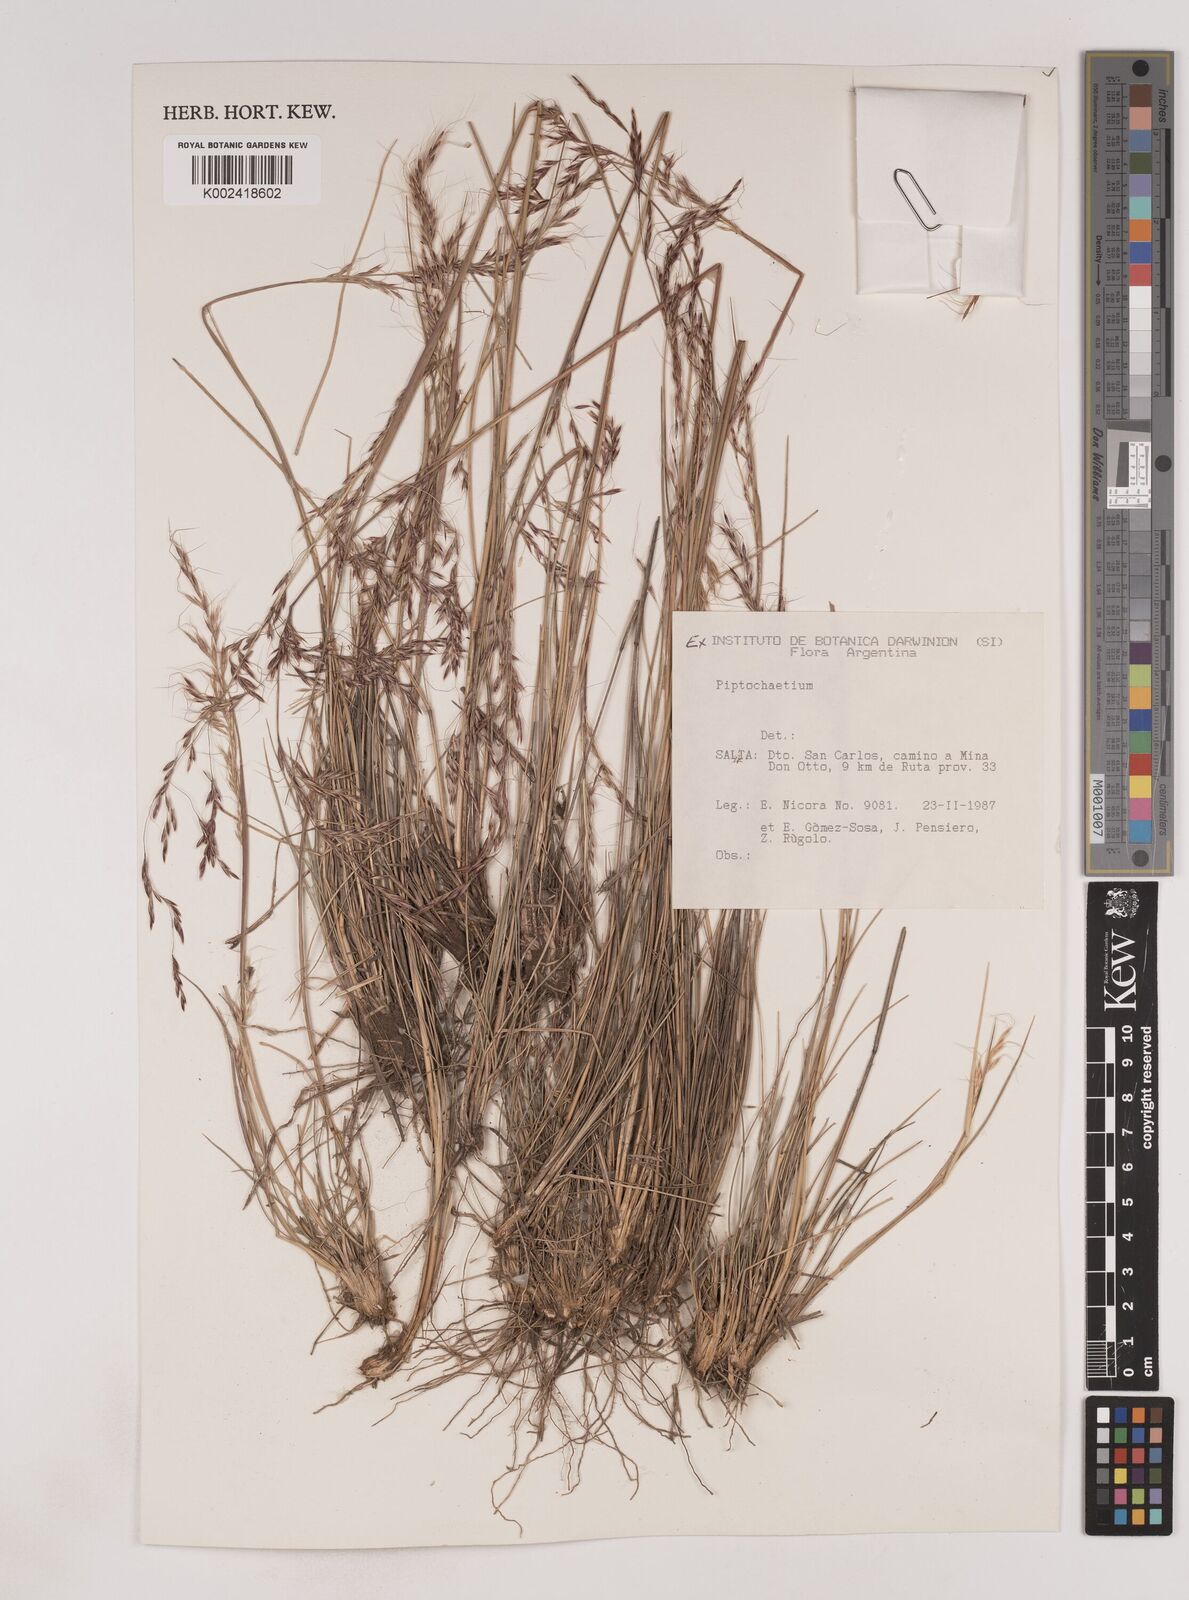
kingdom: Plantae
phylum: Tracheophyta
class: Liliopsida
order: Poales
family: Poaceae
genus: Piptochaetium
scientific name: Piptochaetium
